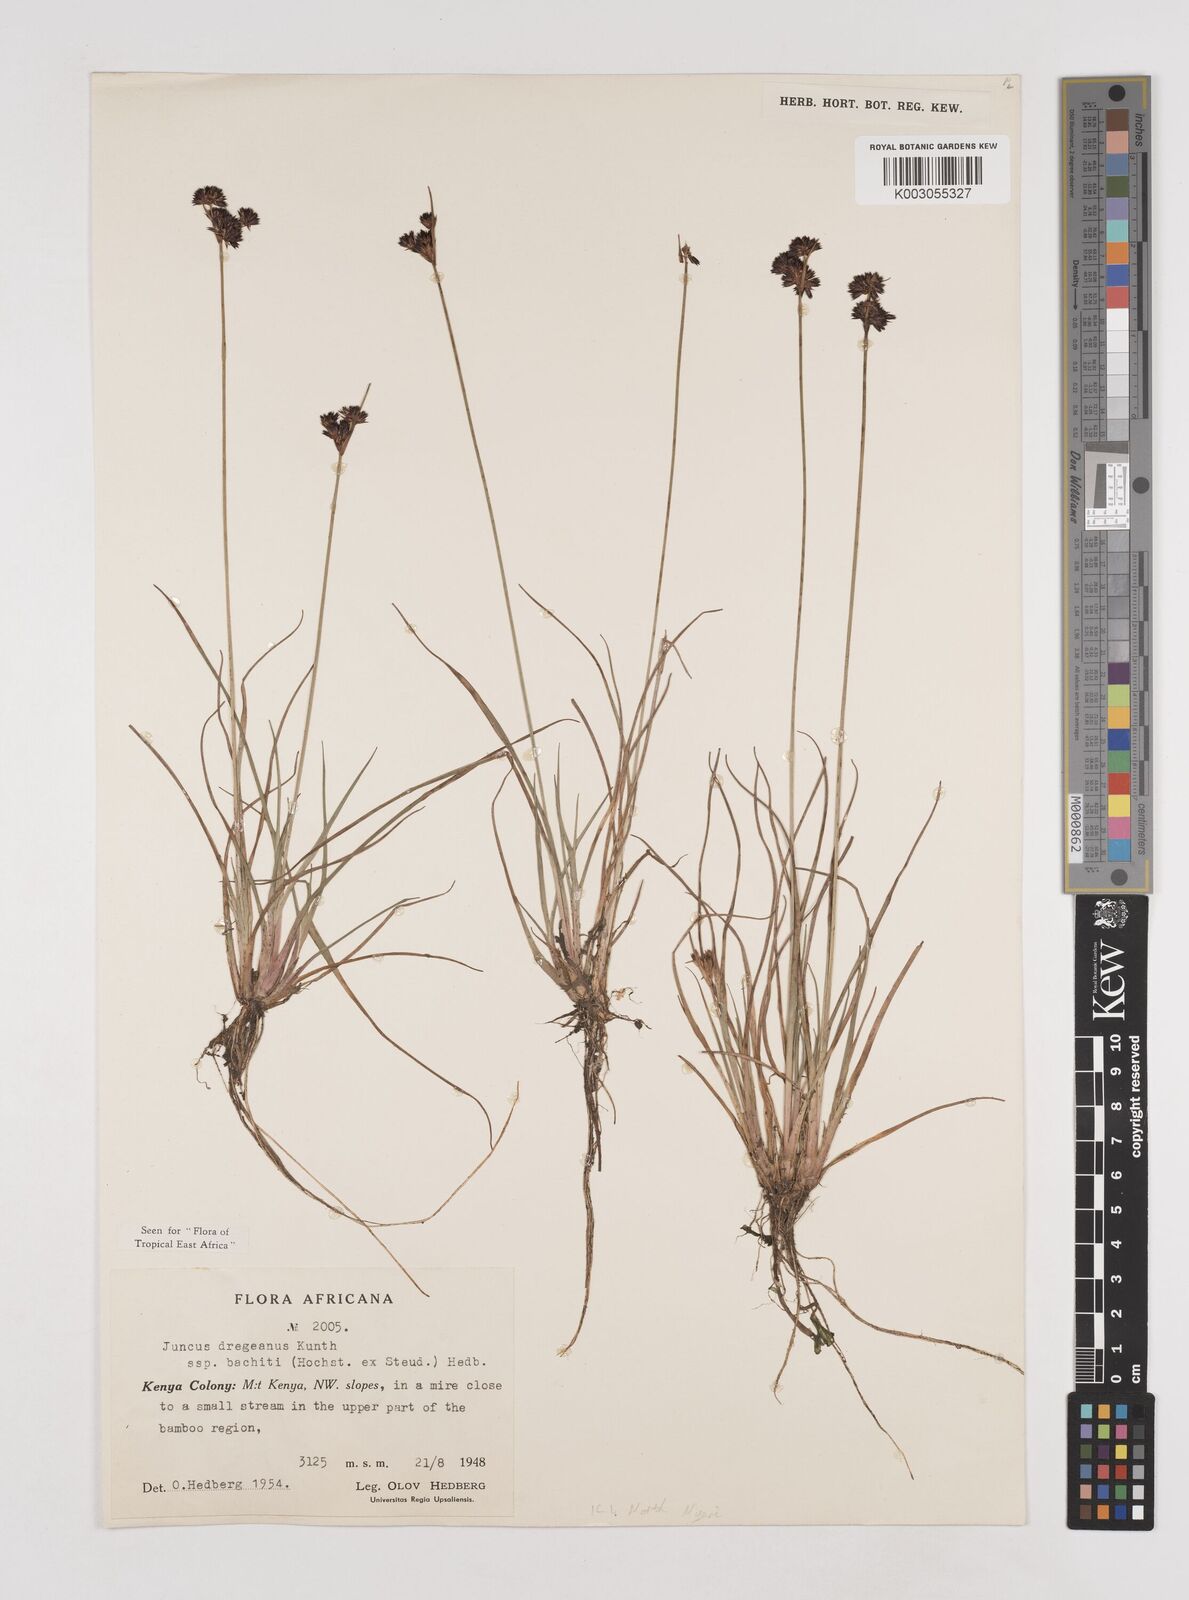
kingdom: Plantae
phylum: Tracheophyta
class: Liliopsida
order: Poales
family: Juncaceae
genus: Juncus
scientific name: Juncus dregeanus
